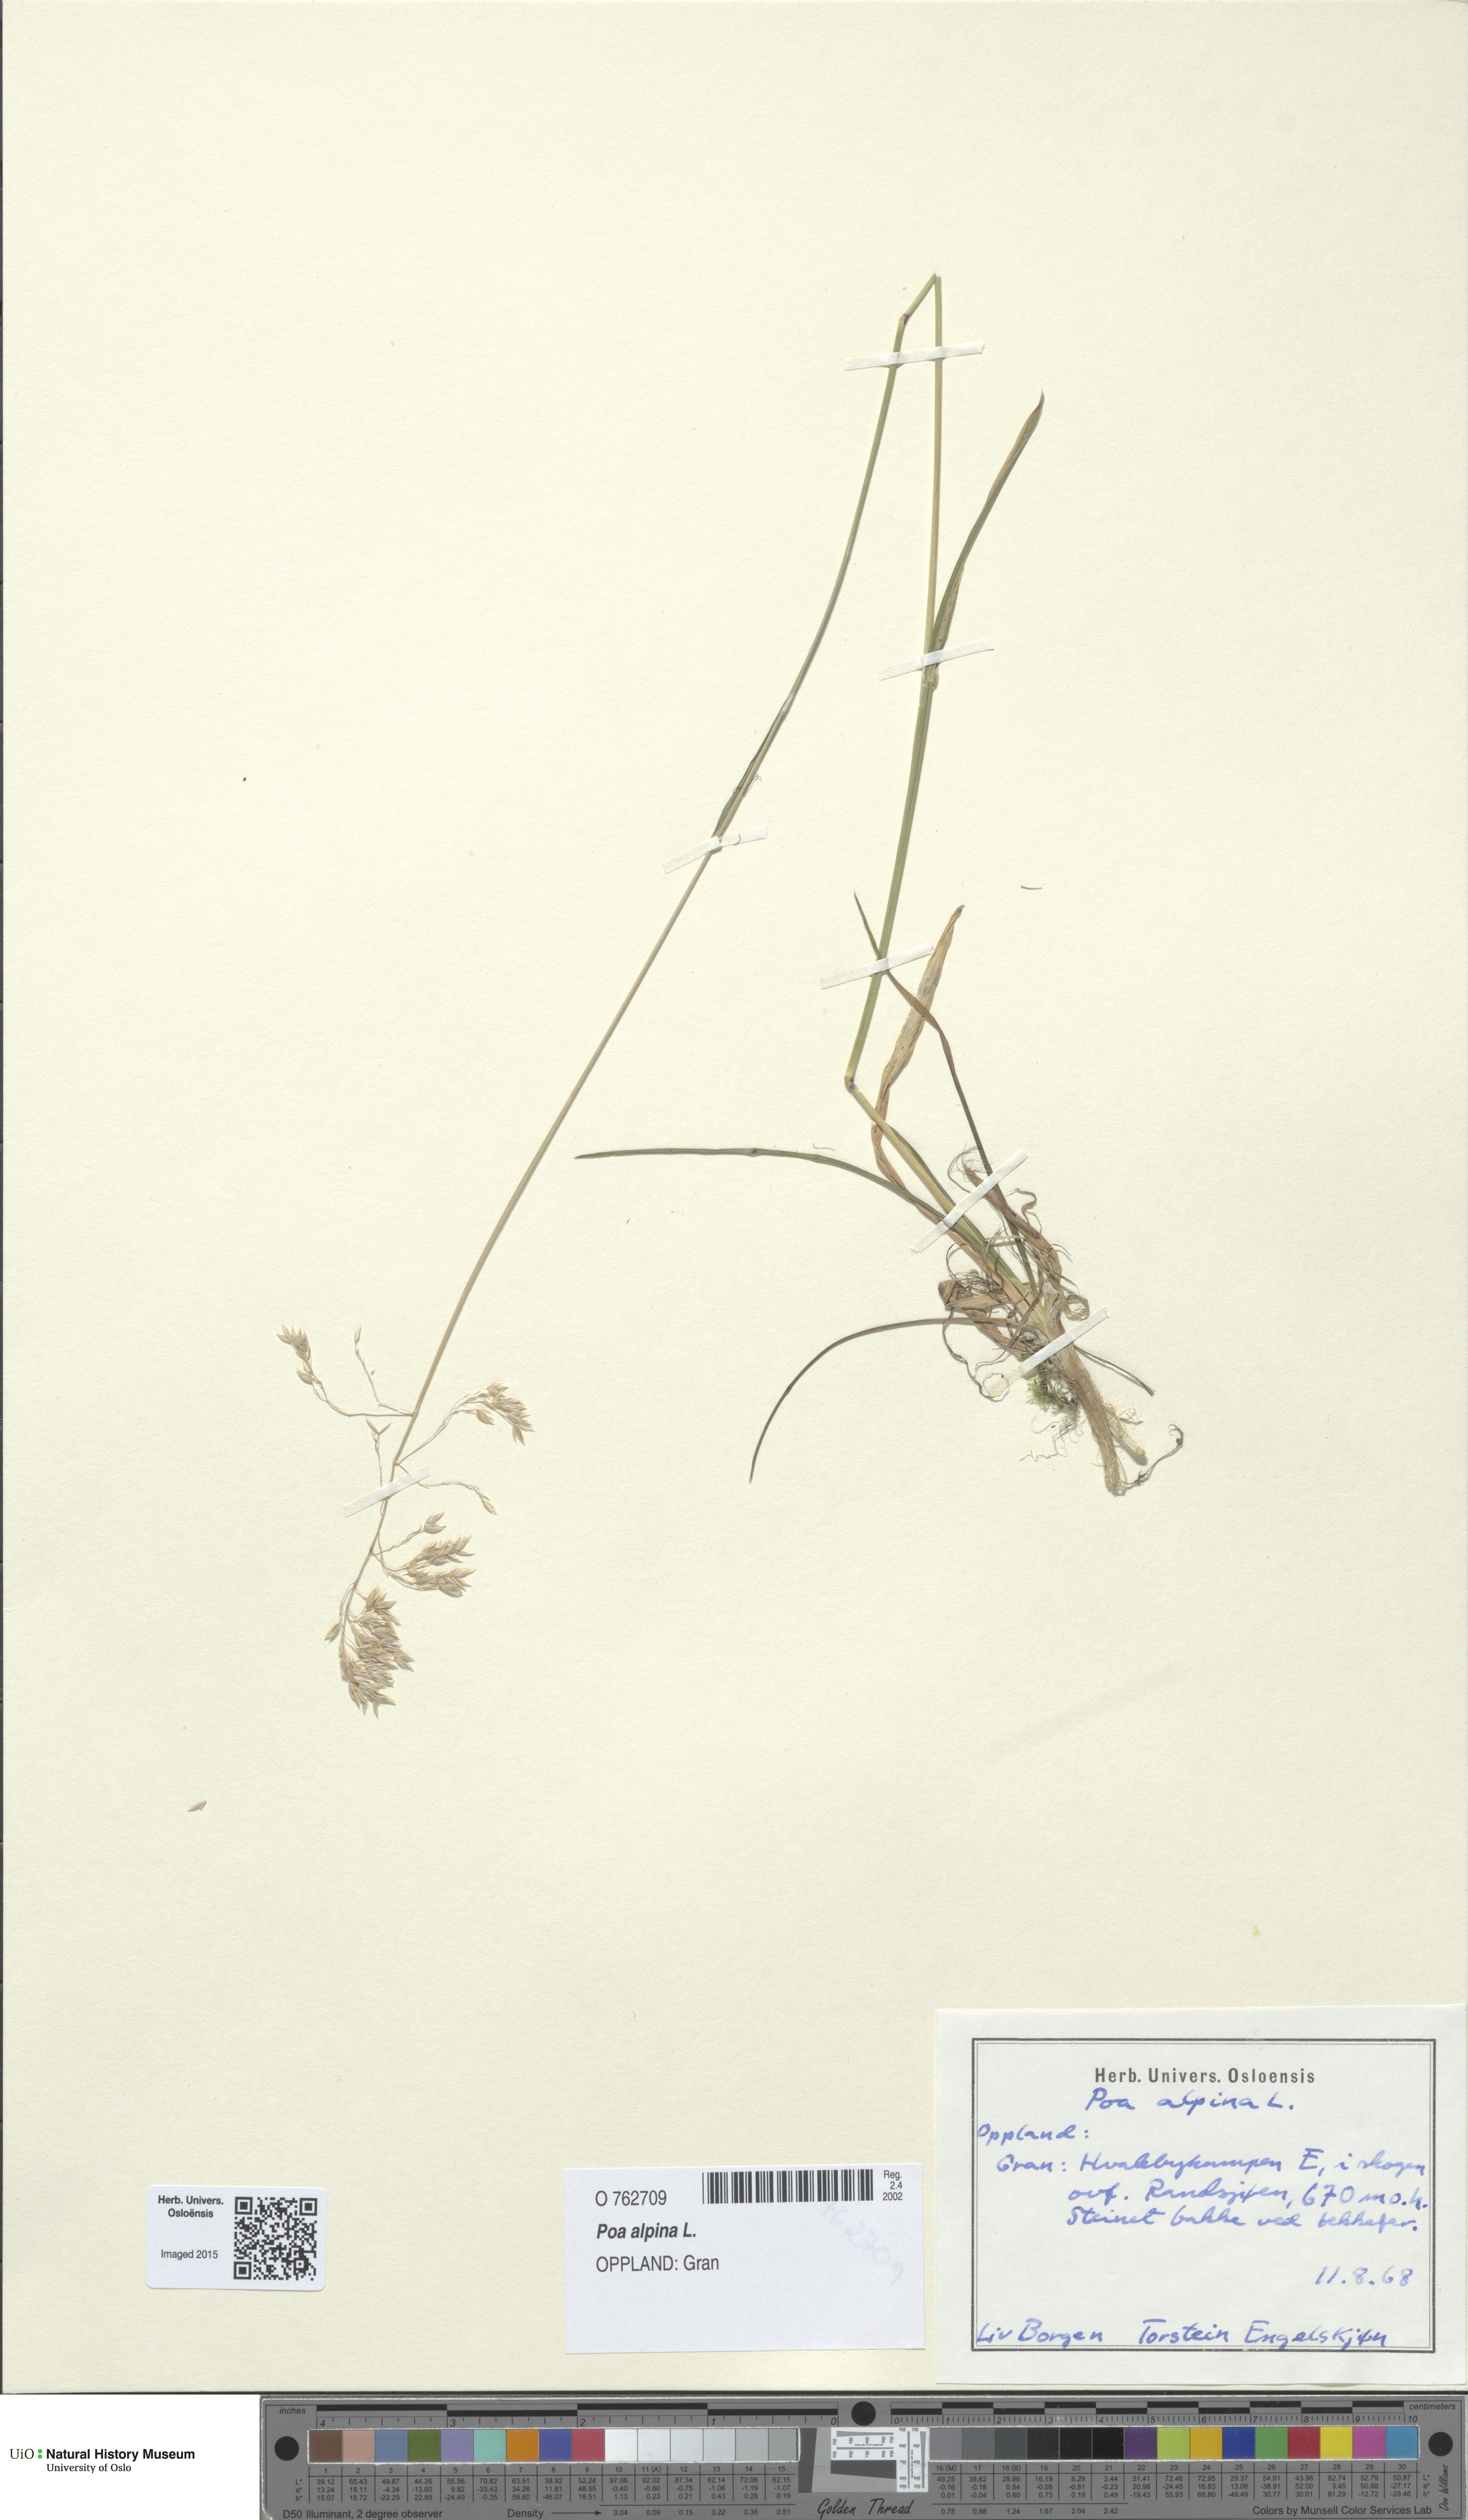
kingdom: Plantae
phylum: Tracheophyta
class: Liliopsida
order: Poales
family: Poaceae
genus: Poa
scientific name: Poa alpina
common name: Alpine bluegrass
